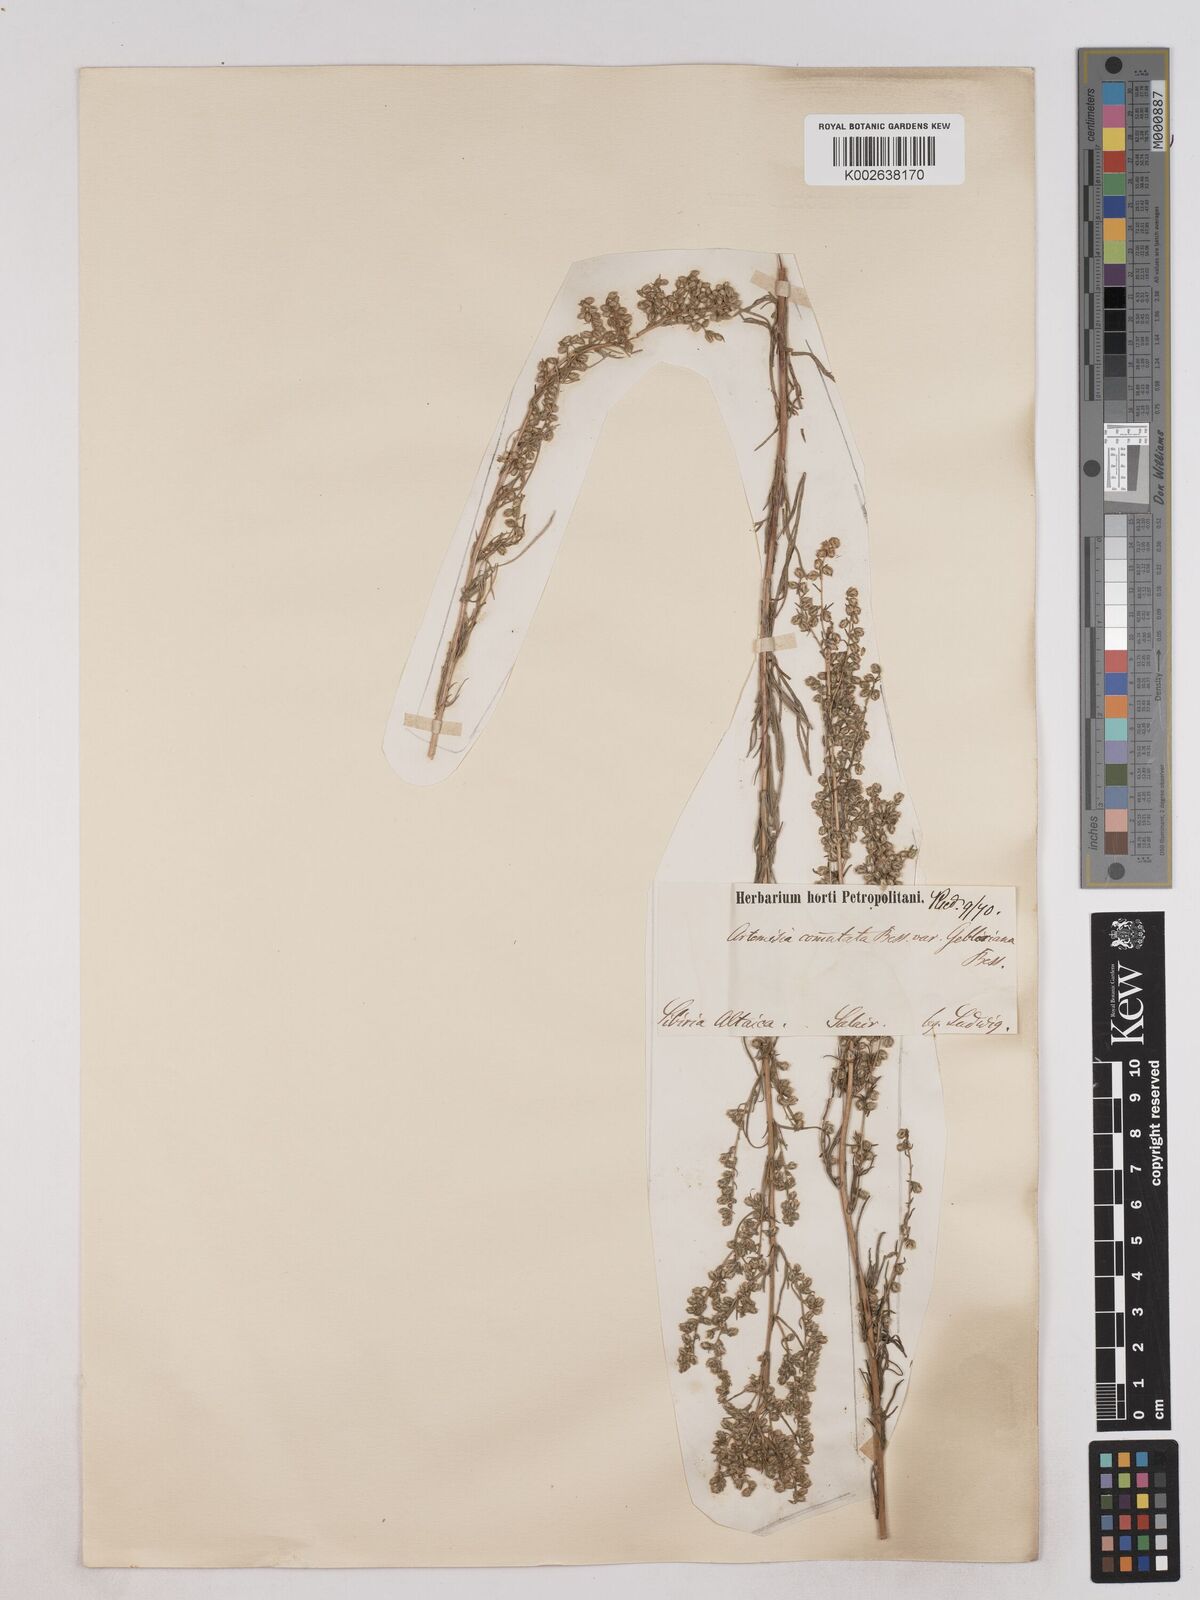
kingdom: Plantae
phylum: Tracheophyta
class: Magnoliopsida
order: Asterales
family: Asteraceae
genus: Artemisia
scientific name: Artemisia pubescens
